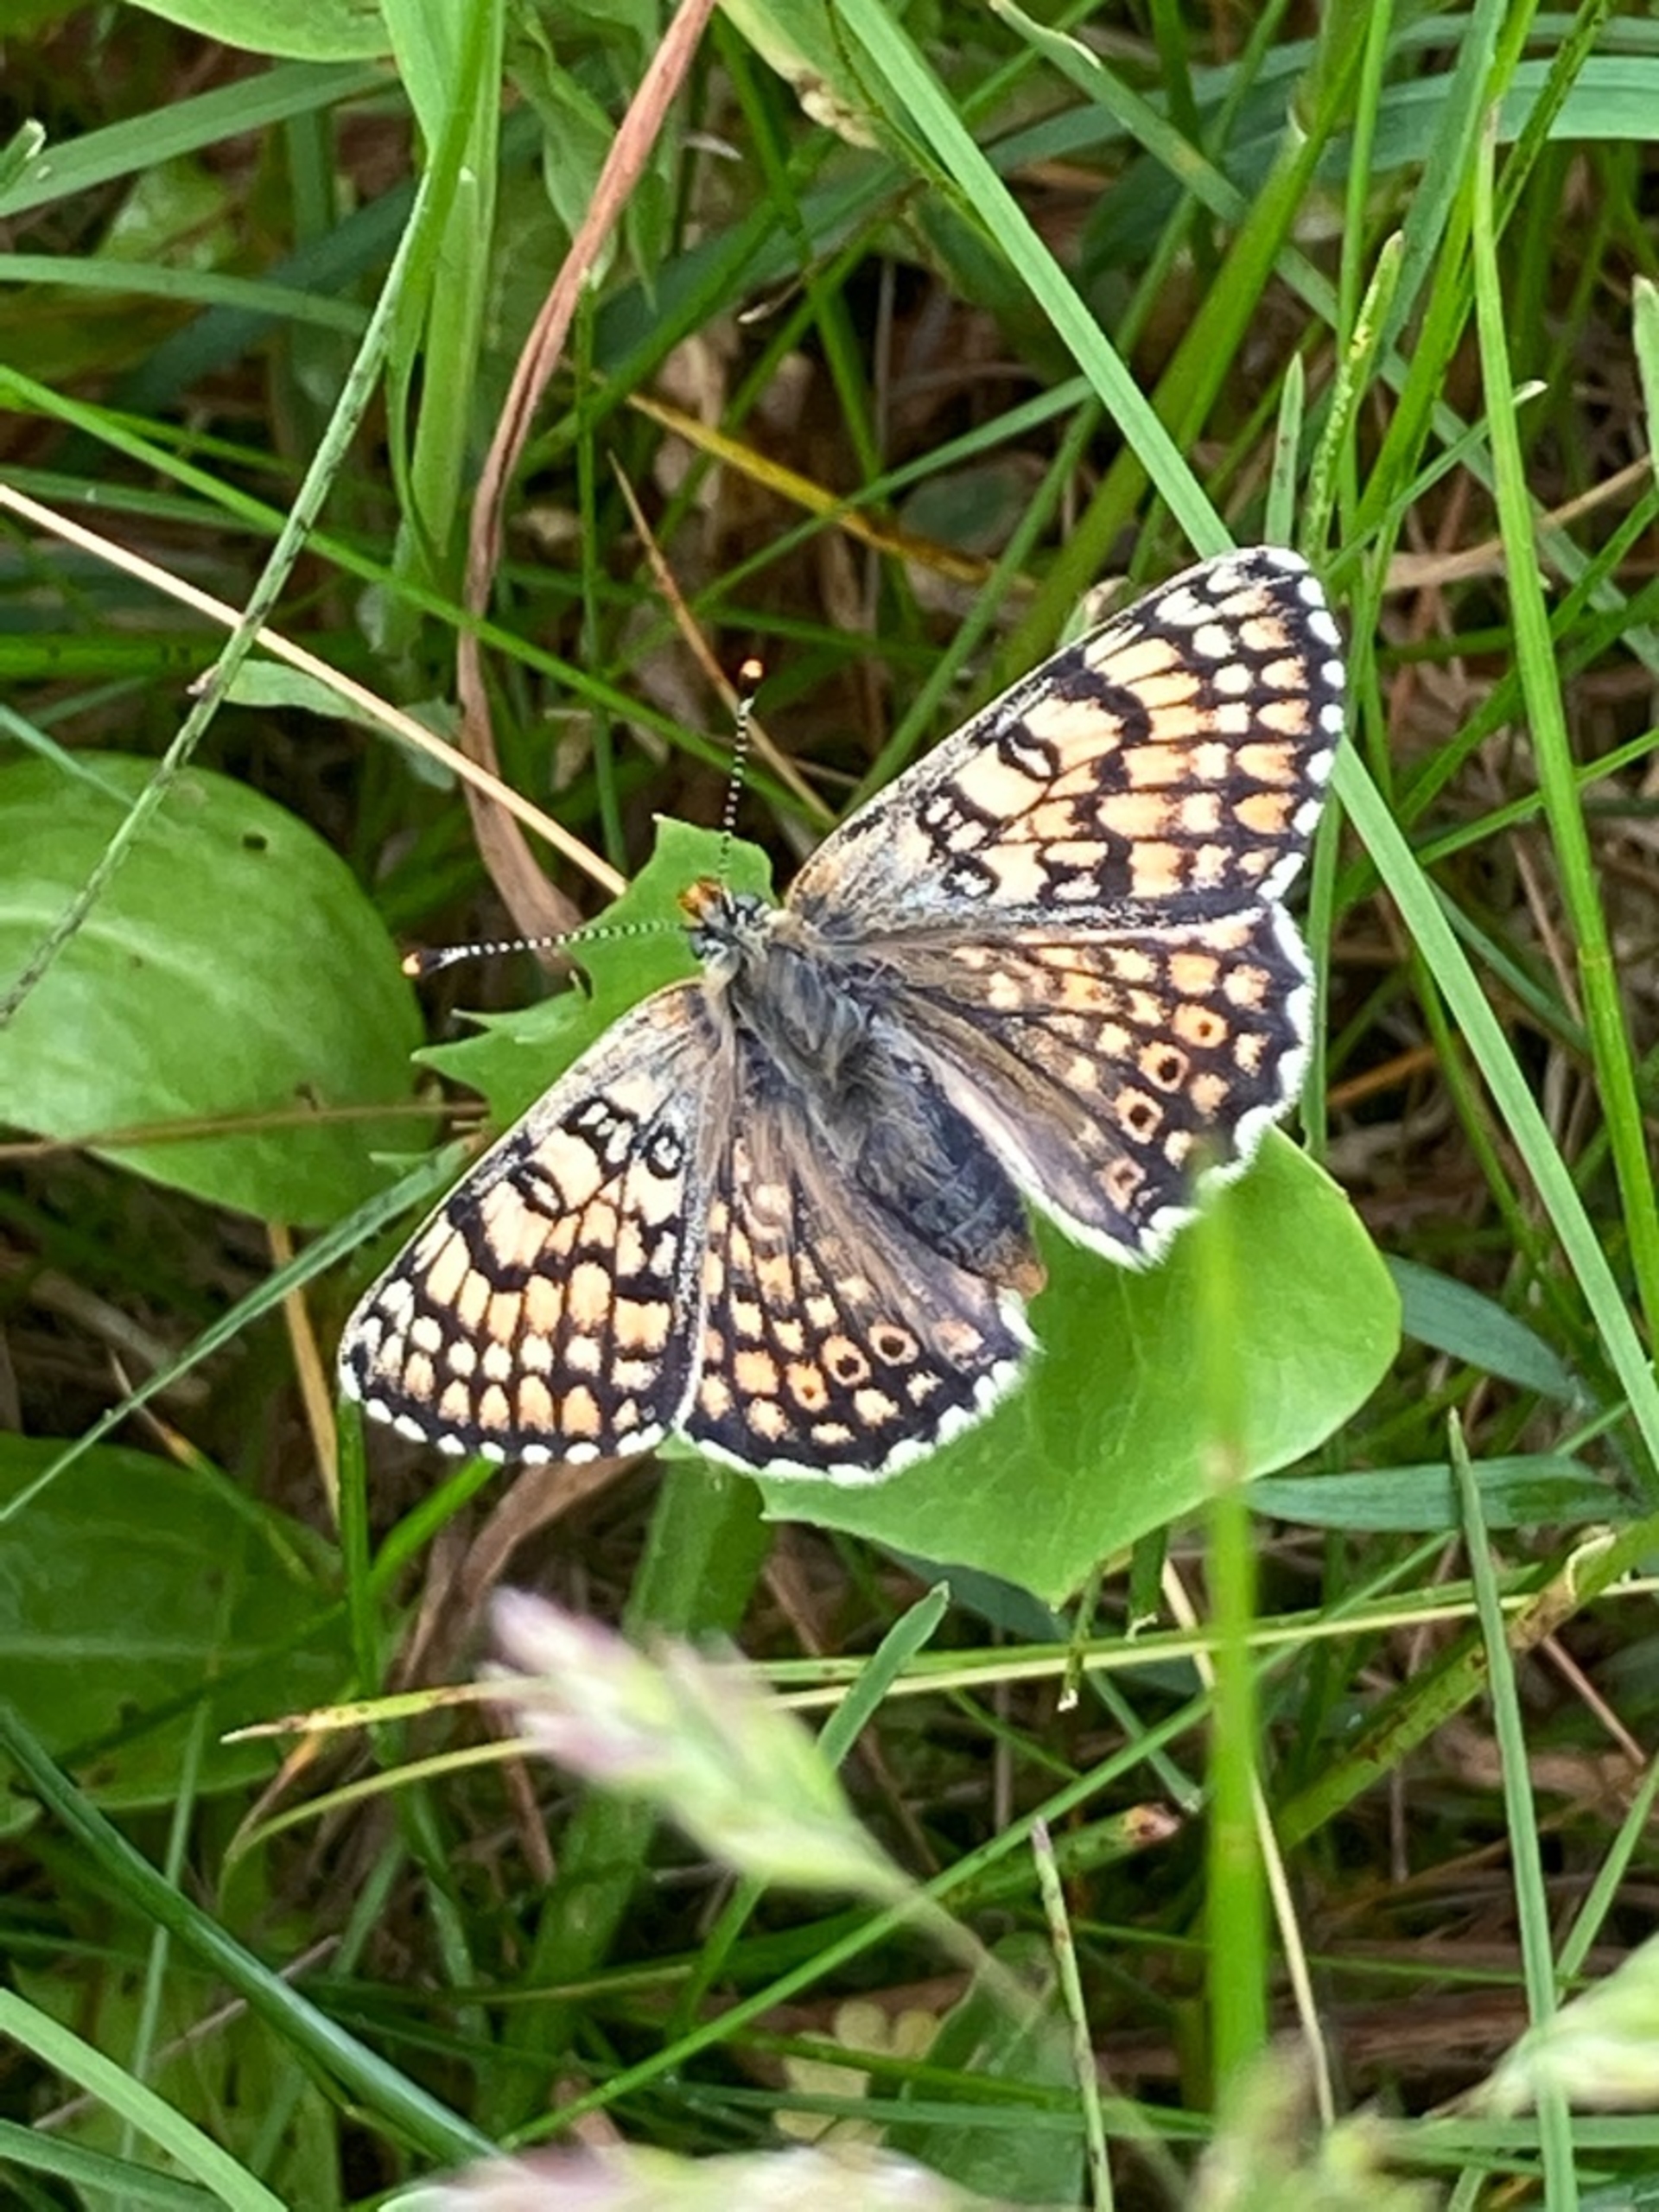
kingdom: Animalia
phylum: Arthropoda
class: Insecta
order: Lepidoptera
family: Nymphalidae
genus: Melitaea
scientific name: Melitaea cinxia
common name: Okkergul pletvinge
